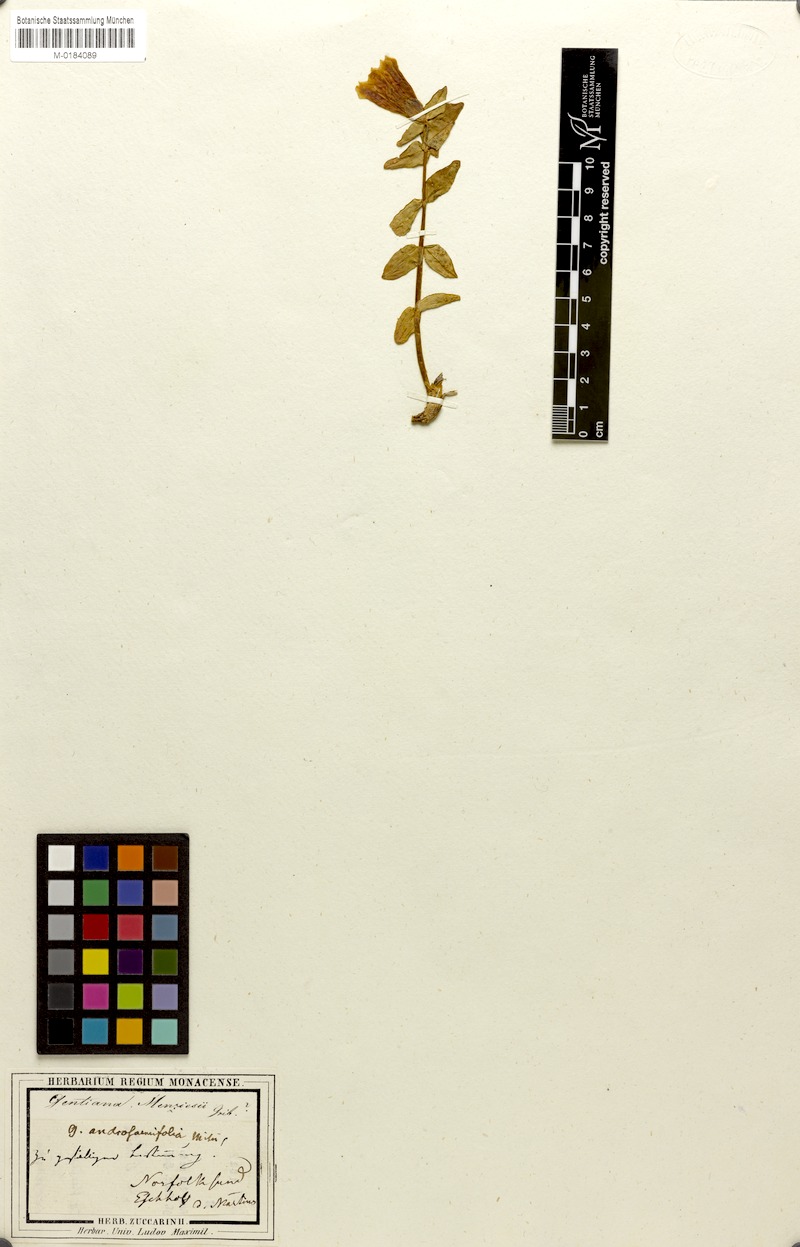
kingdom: Plantae
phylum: Tracheophyta
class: Magnoliopsida
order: Gentianales
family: Gentianaceae
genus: Gentiana
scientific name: Gentiana platypetala
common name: Broad-petalled gentian
